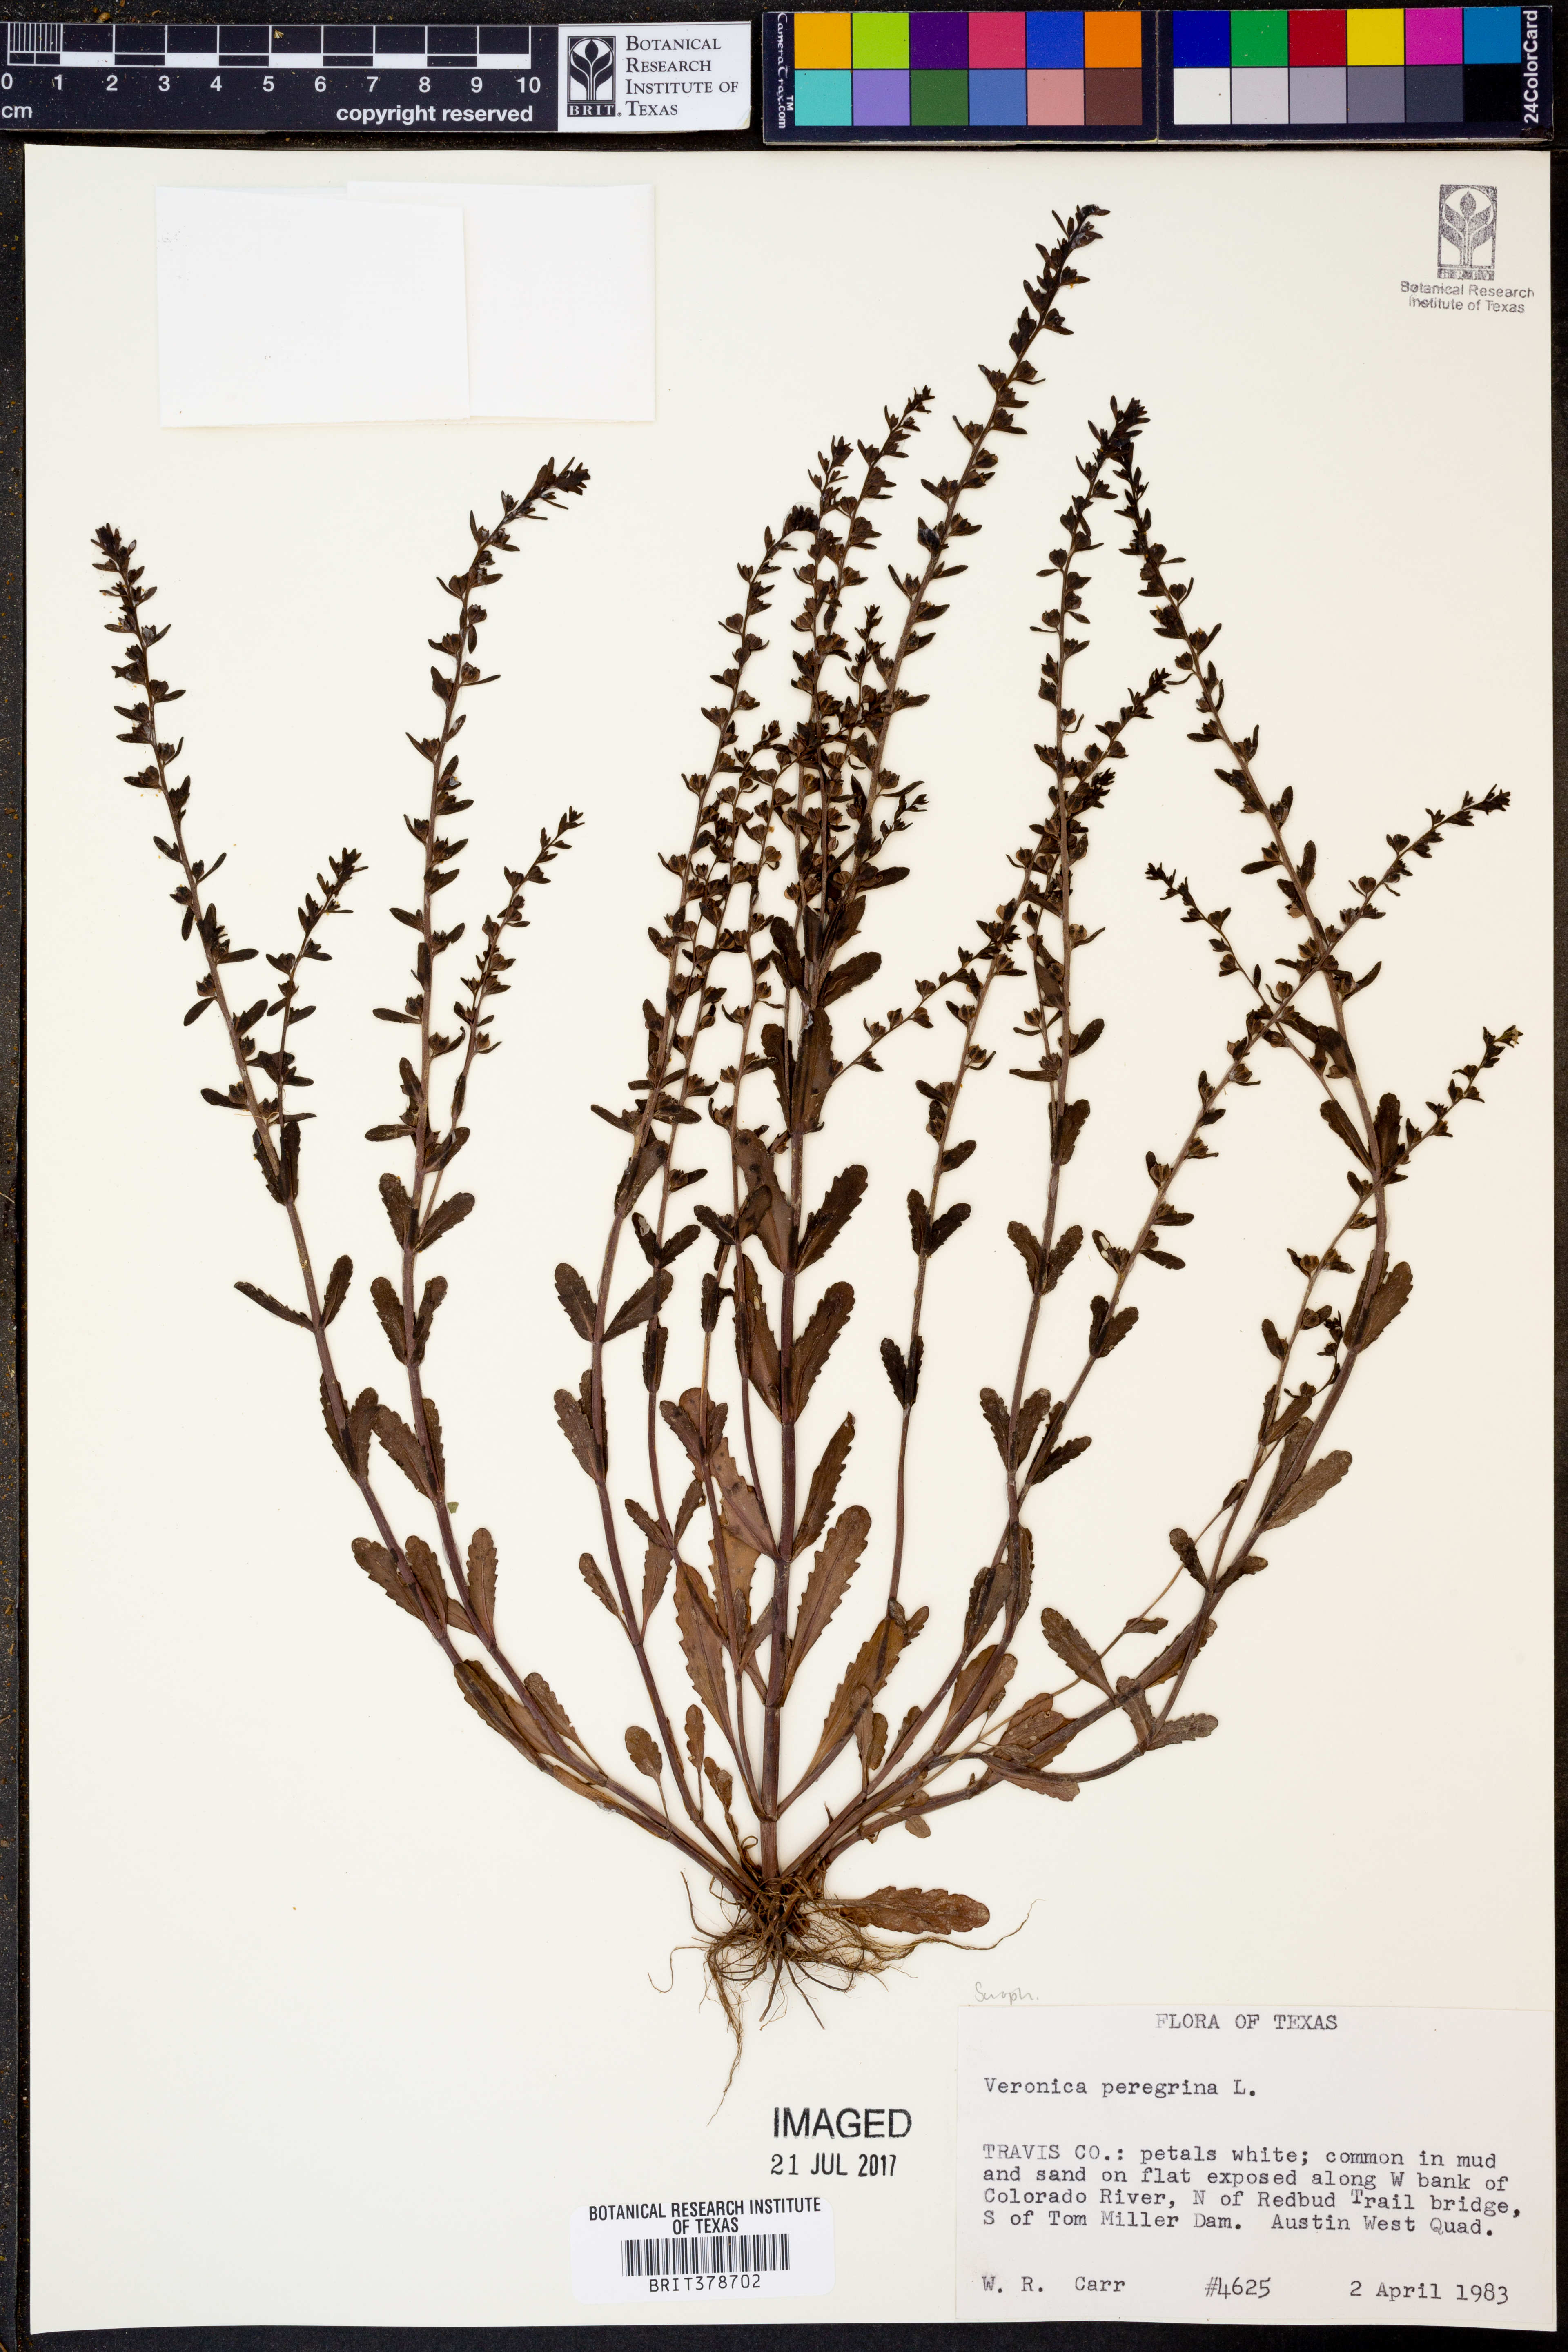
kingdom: Plantae
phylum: Tracheophyta
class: Magnoliopsida
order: Lamiales
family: Plantaginaceae
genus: Veronica
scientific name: Veronica peregrina
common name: Neckweed
